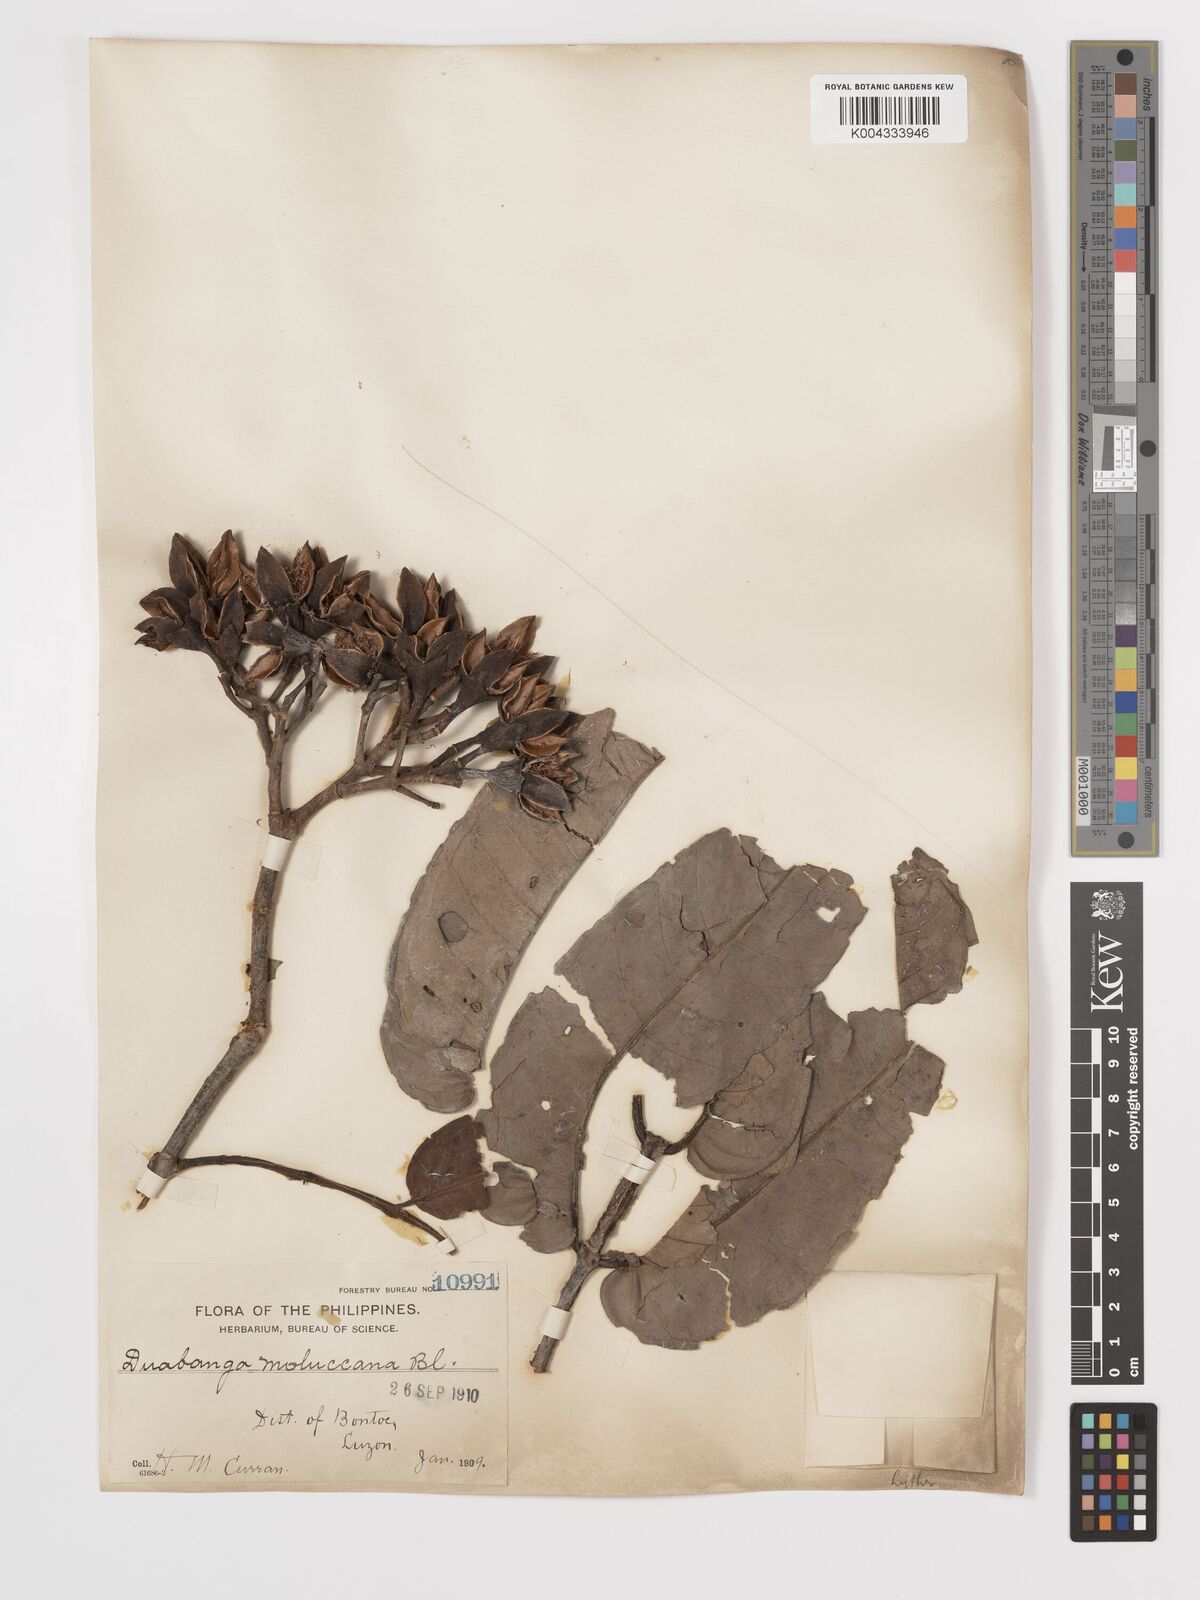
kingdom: Plantae
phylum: Tracheophyta
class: Magnoliopsida
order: Myrtales
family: Lythraceae
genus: Duabanga
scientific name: Duabanga moluccana
